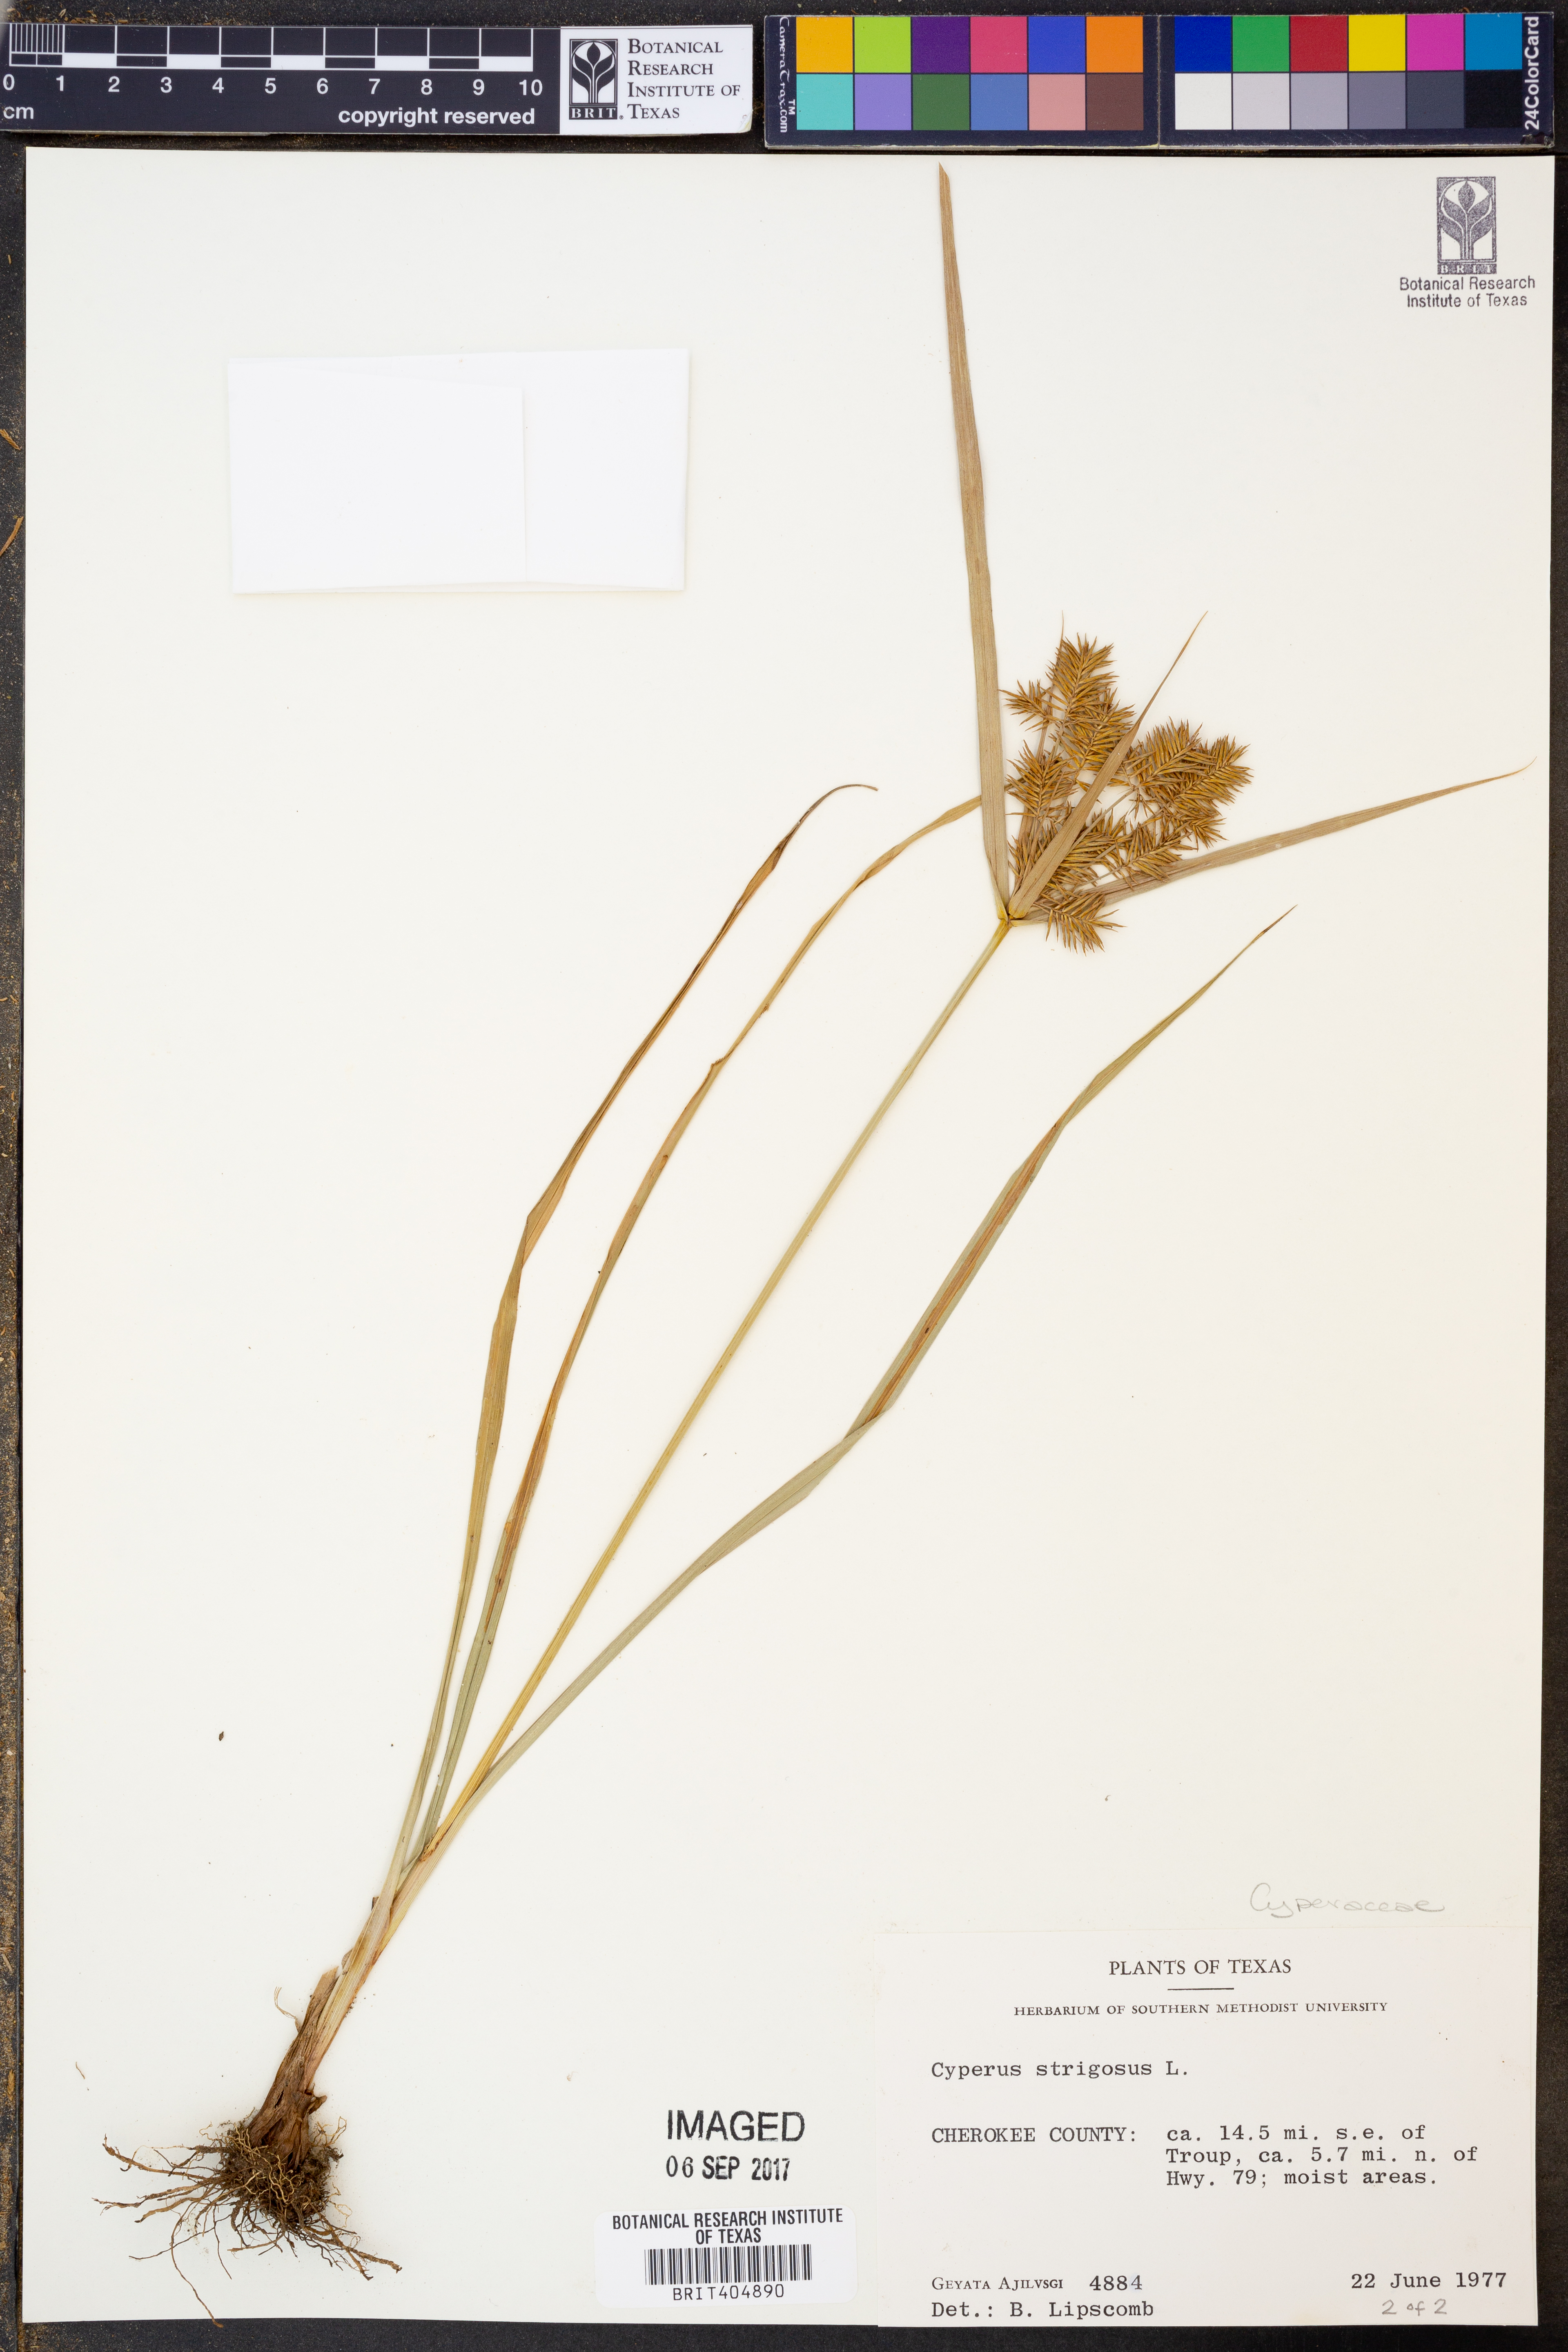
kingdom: Plantae
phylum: Tracheophyta
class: Liliopsida
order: Poales
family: Cyperaceae
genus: Cyperus
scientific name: Cyperus strigosus
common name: False nutsedge
